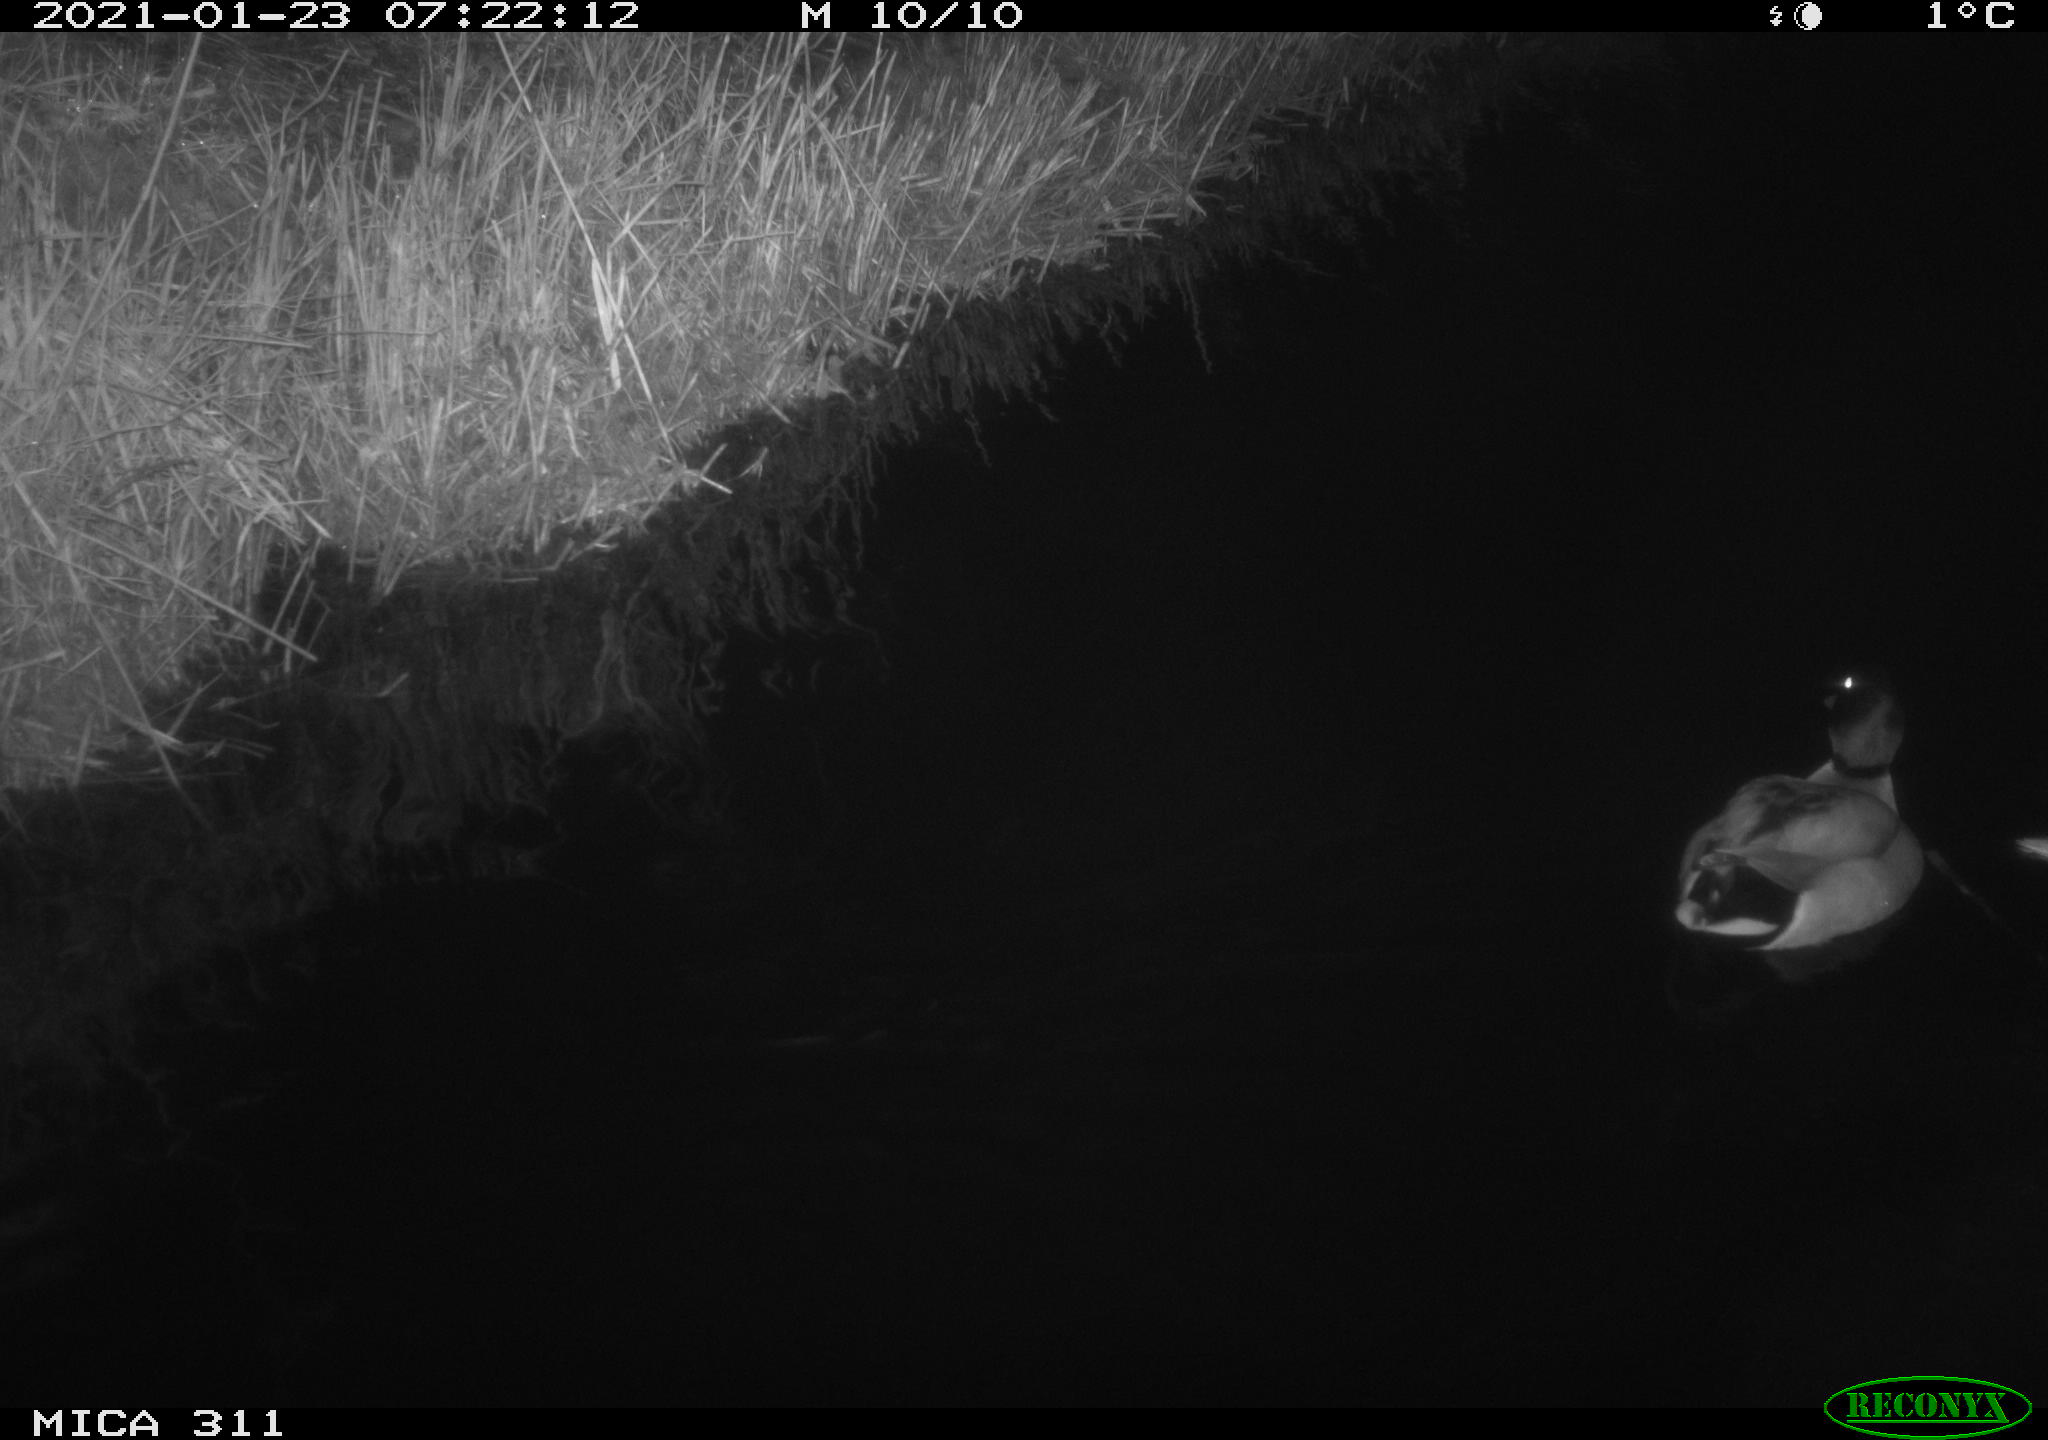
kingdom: Animalia
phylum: Chordata
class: Aves
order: Anseriformes
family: Anatidae
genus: Anas
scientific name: Anas
